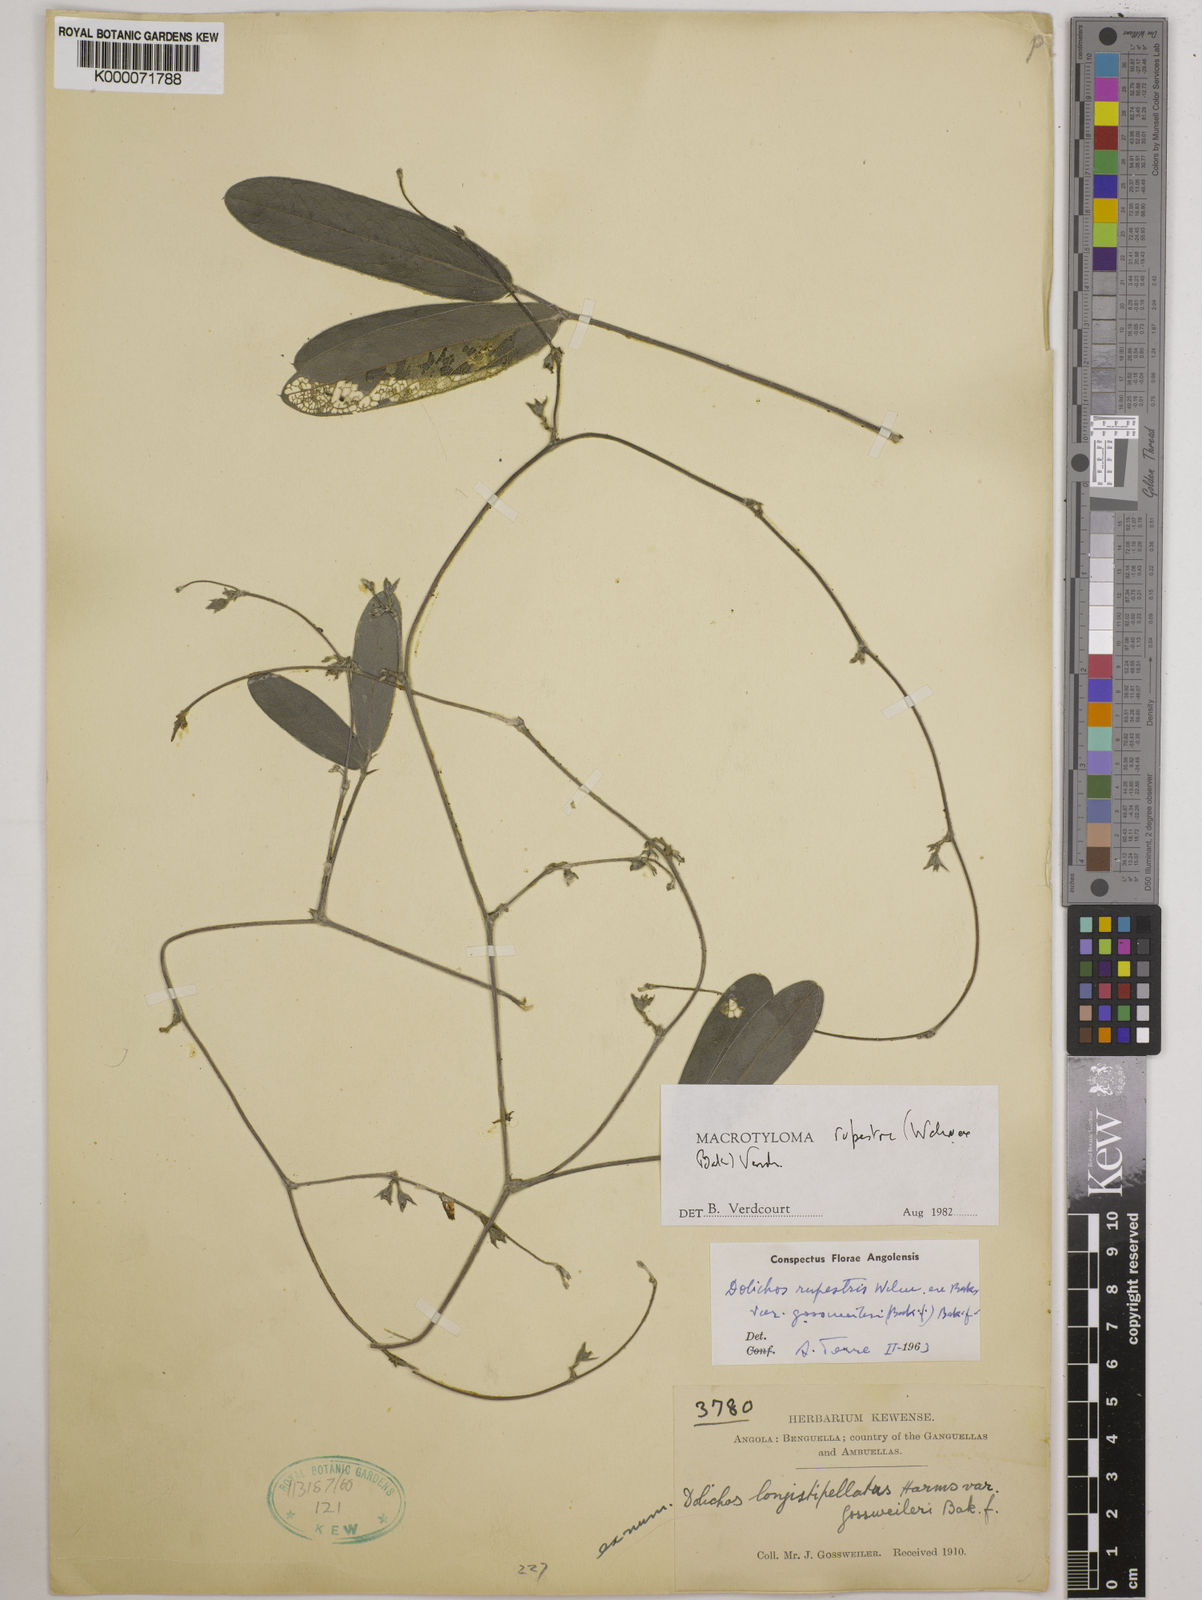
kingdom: Plantae
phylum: Tracheophyta
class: Magnoliopsida
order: Fabales
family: Fabaceae
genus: Macrotyloma
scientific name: Macrotyloma rupestre
